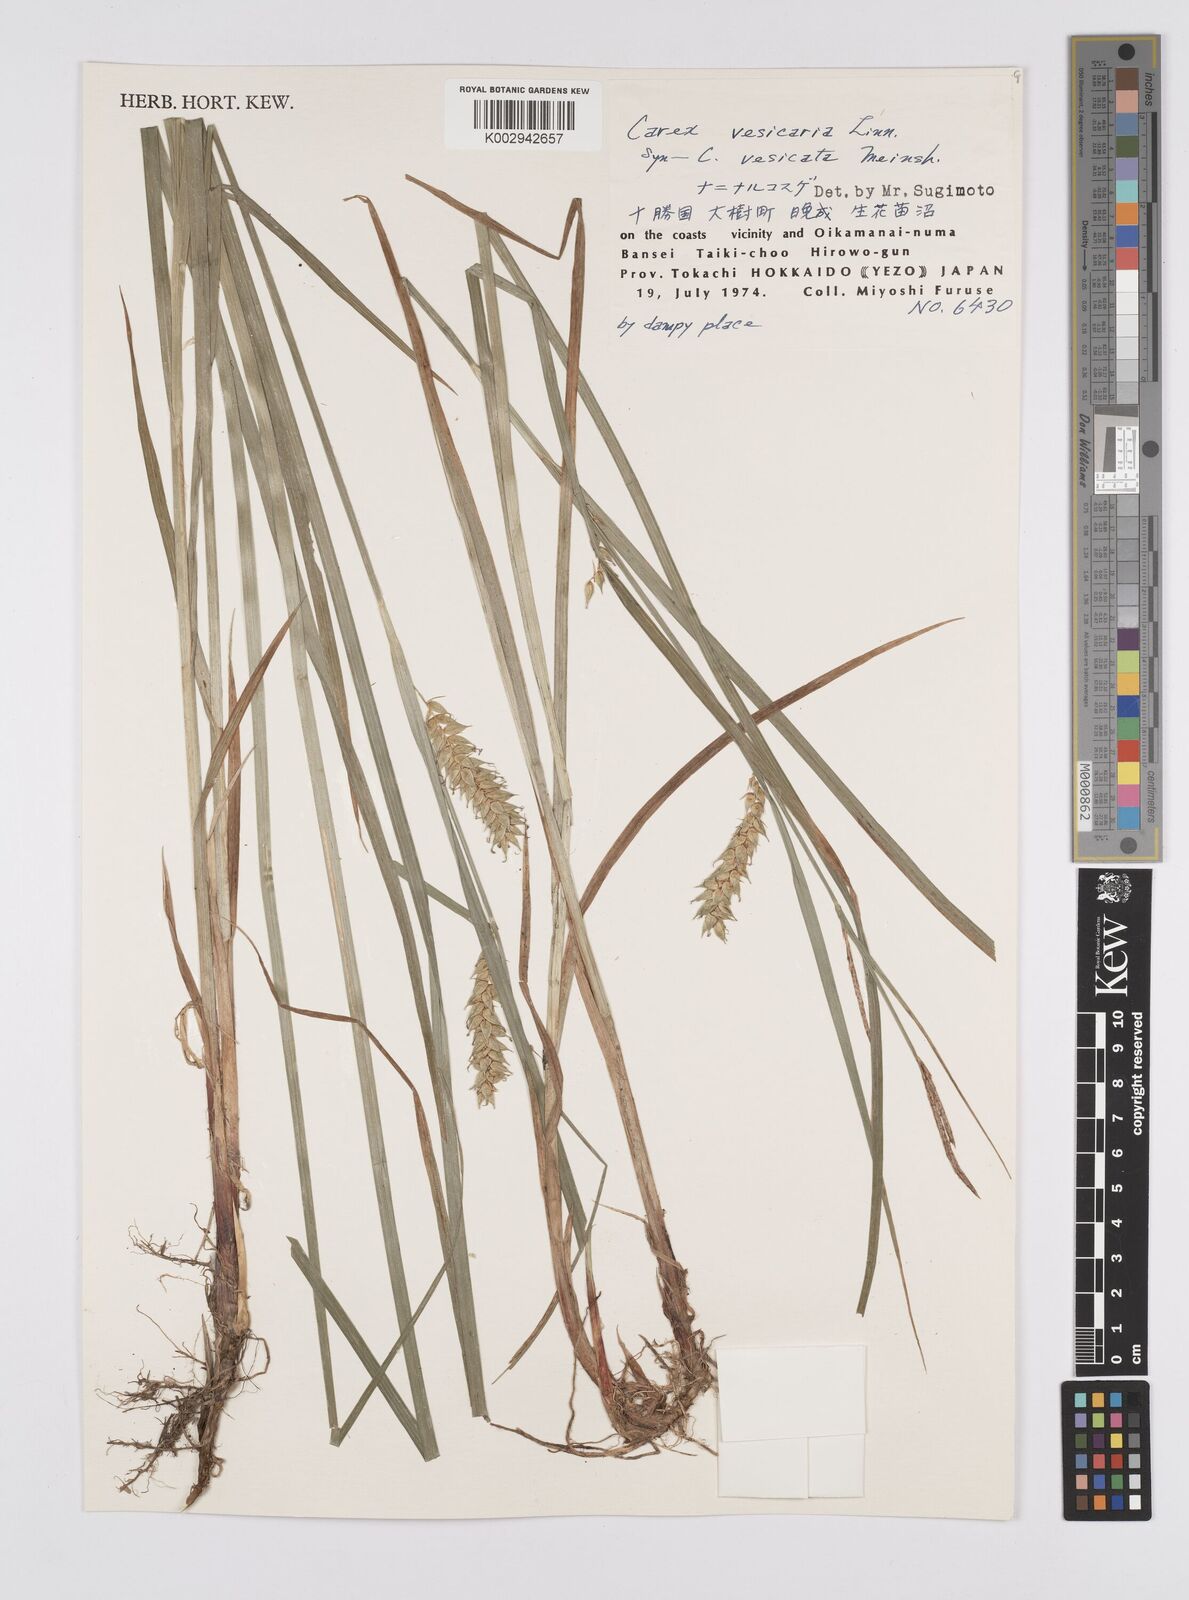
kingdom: Plantae
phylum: Tracheophyta
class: Liliopsida
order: Poales
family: Cyperaceae
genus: Carex
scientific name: Carex vesicaria
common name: Bladder-sedge
